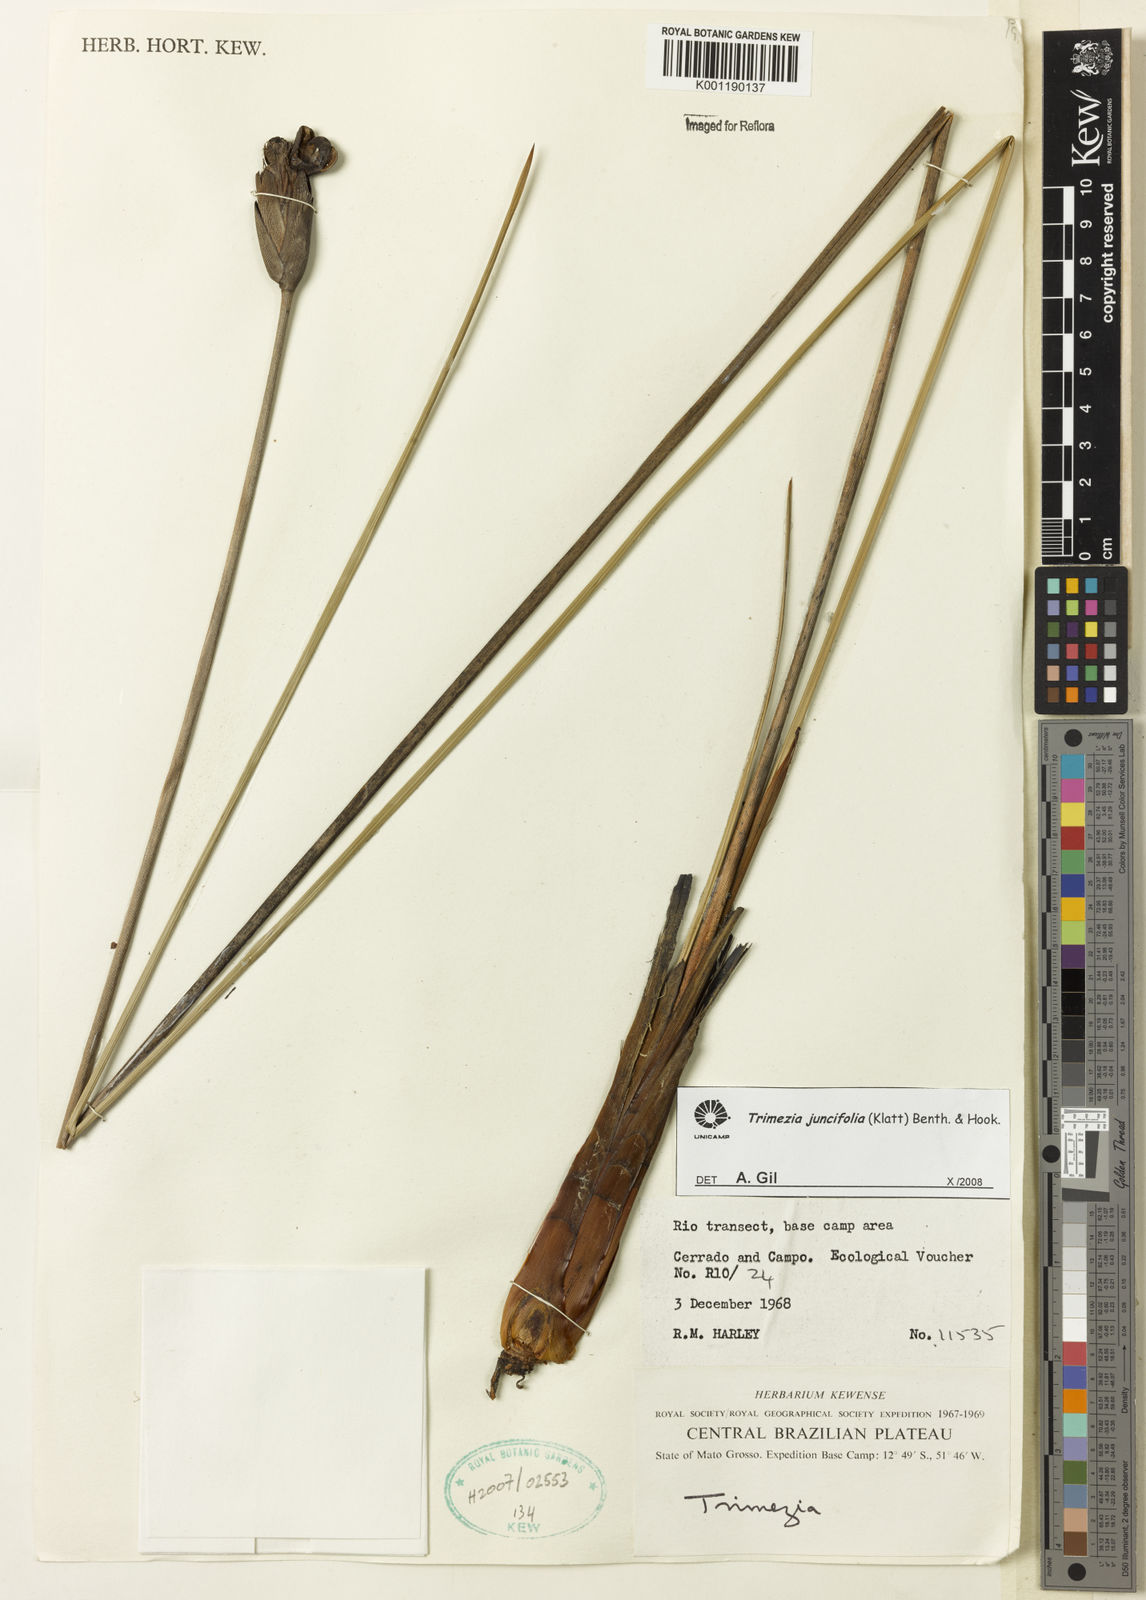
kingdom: Plantae
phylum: Tracheophyta
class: Liliopsida
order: Asparagales
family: Iridaceae
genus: Trimezia
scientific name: Trimezia juncifolia
